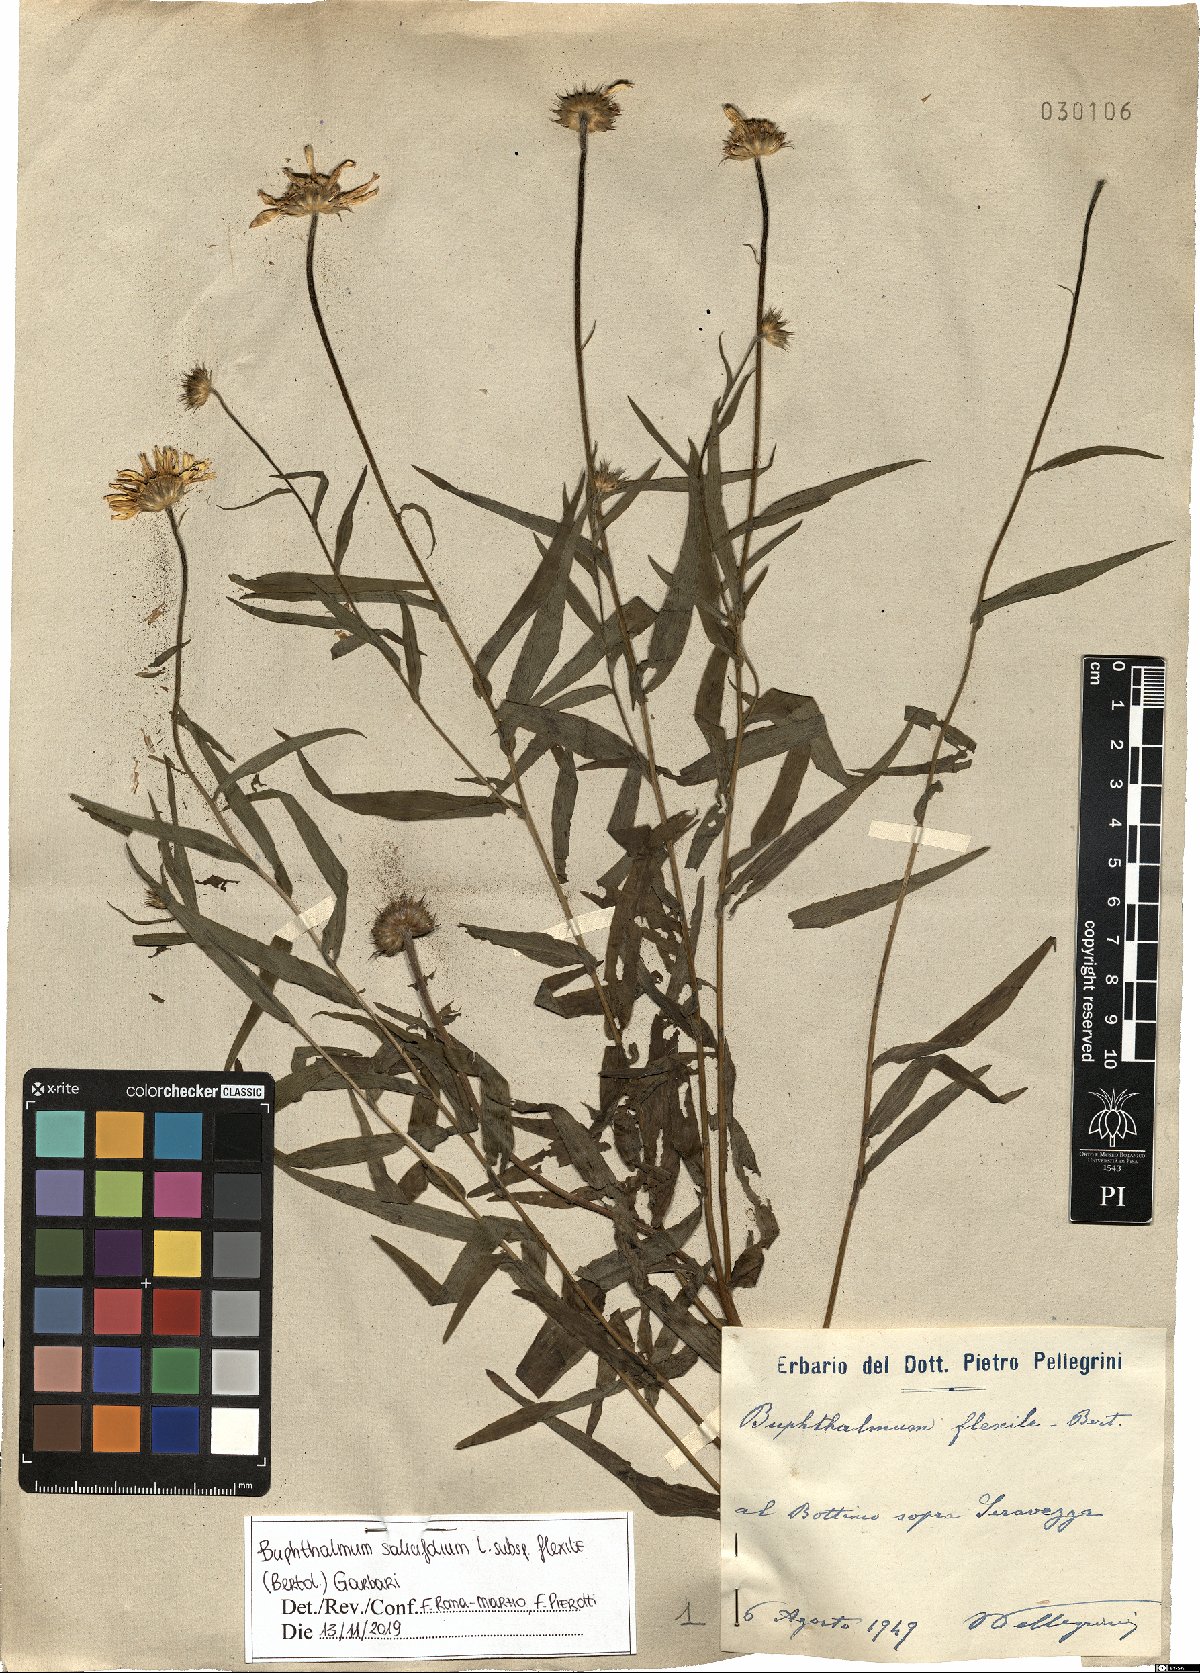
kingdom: Plantae
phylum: Tracheophyta
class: Magnoliopsida
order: Asterales
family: Asteraceae
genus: Buphthalmum
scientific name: Buphthalmum salicifolium
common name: Willow-leaved yellow-oxeye
